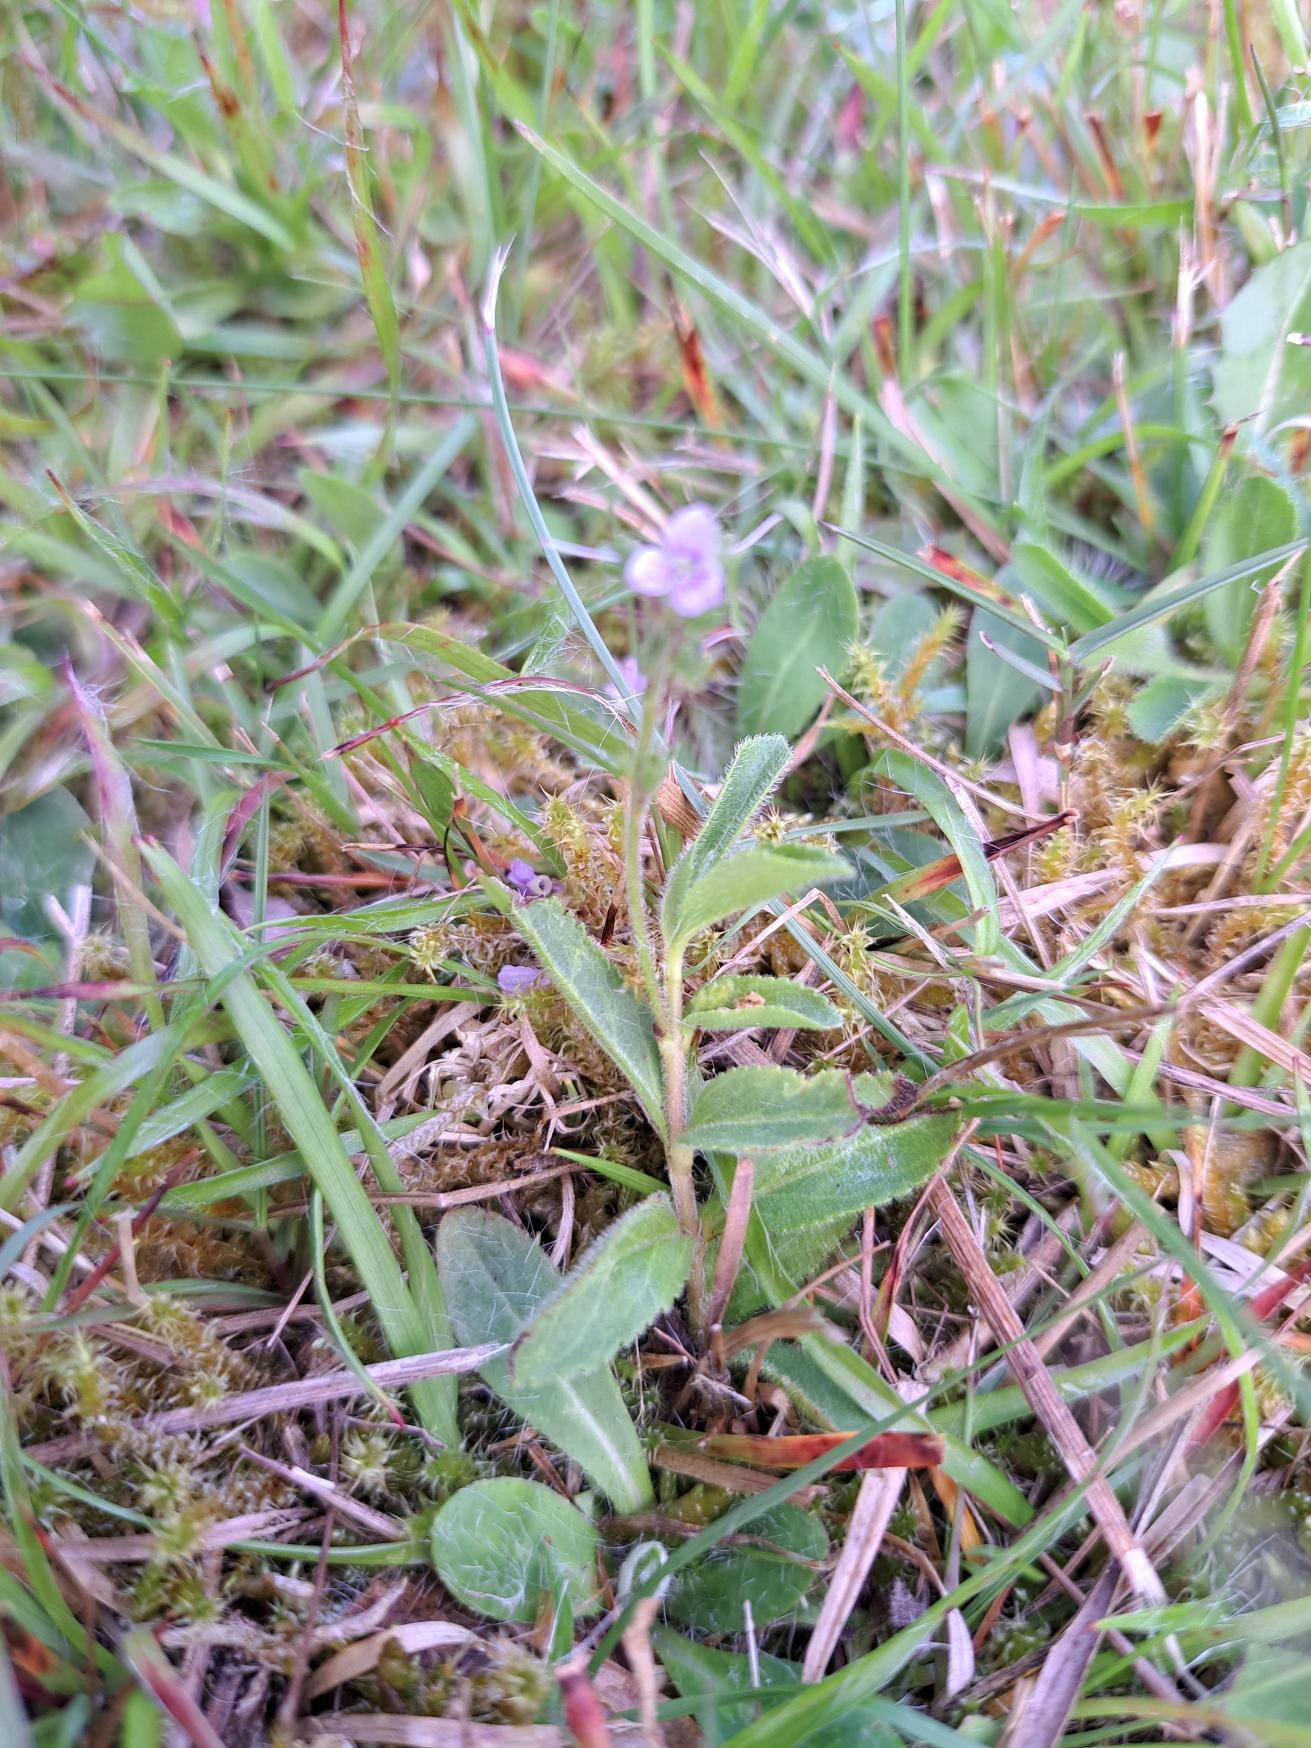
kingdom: Plantae
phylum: Tracheophyta
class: Magnoliopsida
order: Lamiales
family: Plantaginaceae
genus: Veronica
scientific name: Veronica officinalis
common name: Læge-ærenpris
